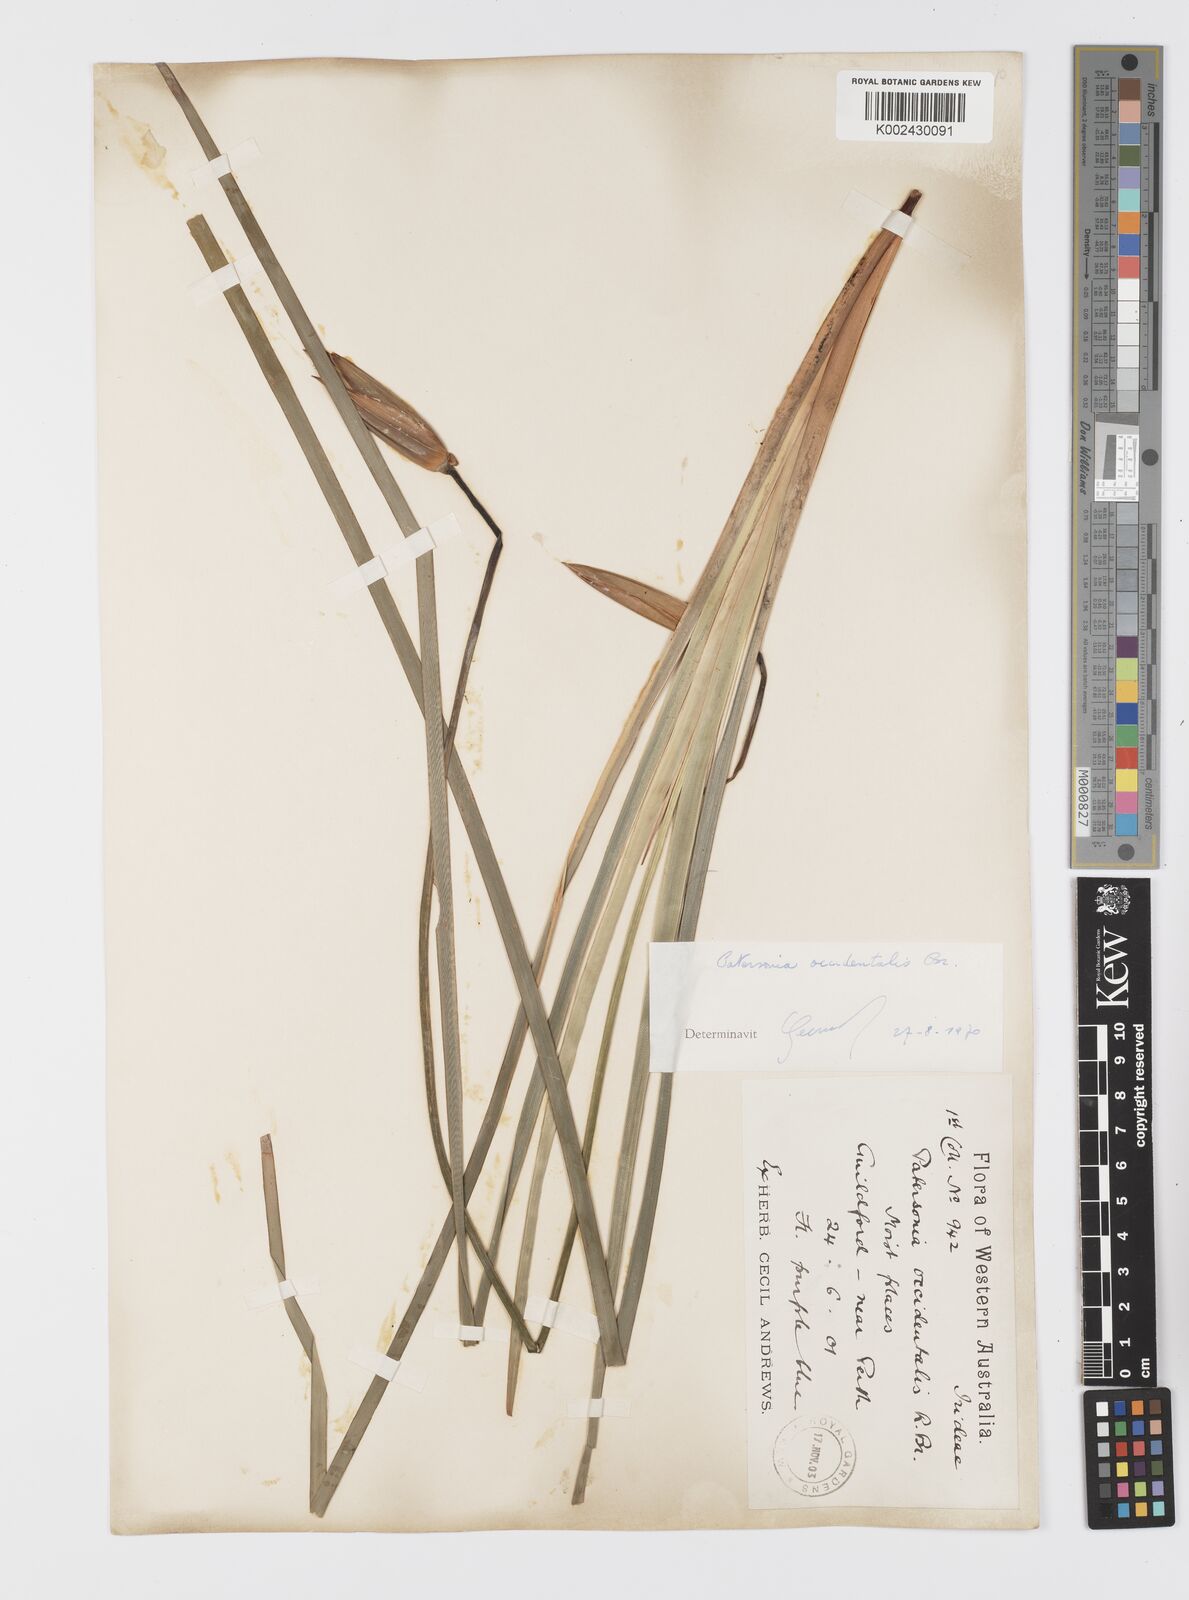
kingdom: Plantae
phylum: Tracheophyta
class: Liliopsida
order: Asparagales
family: Iridaceae
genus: Patersonia
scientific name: Patersonia occidentalis
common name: Long purple-flag
